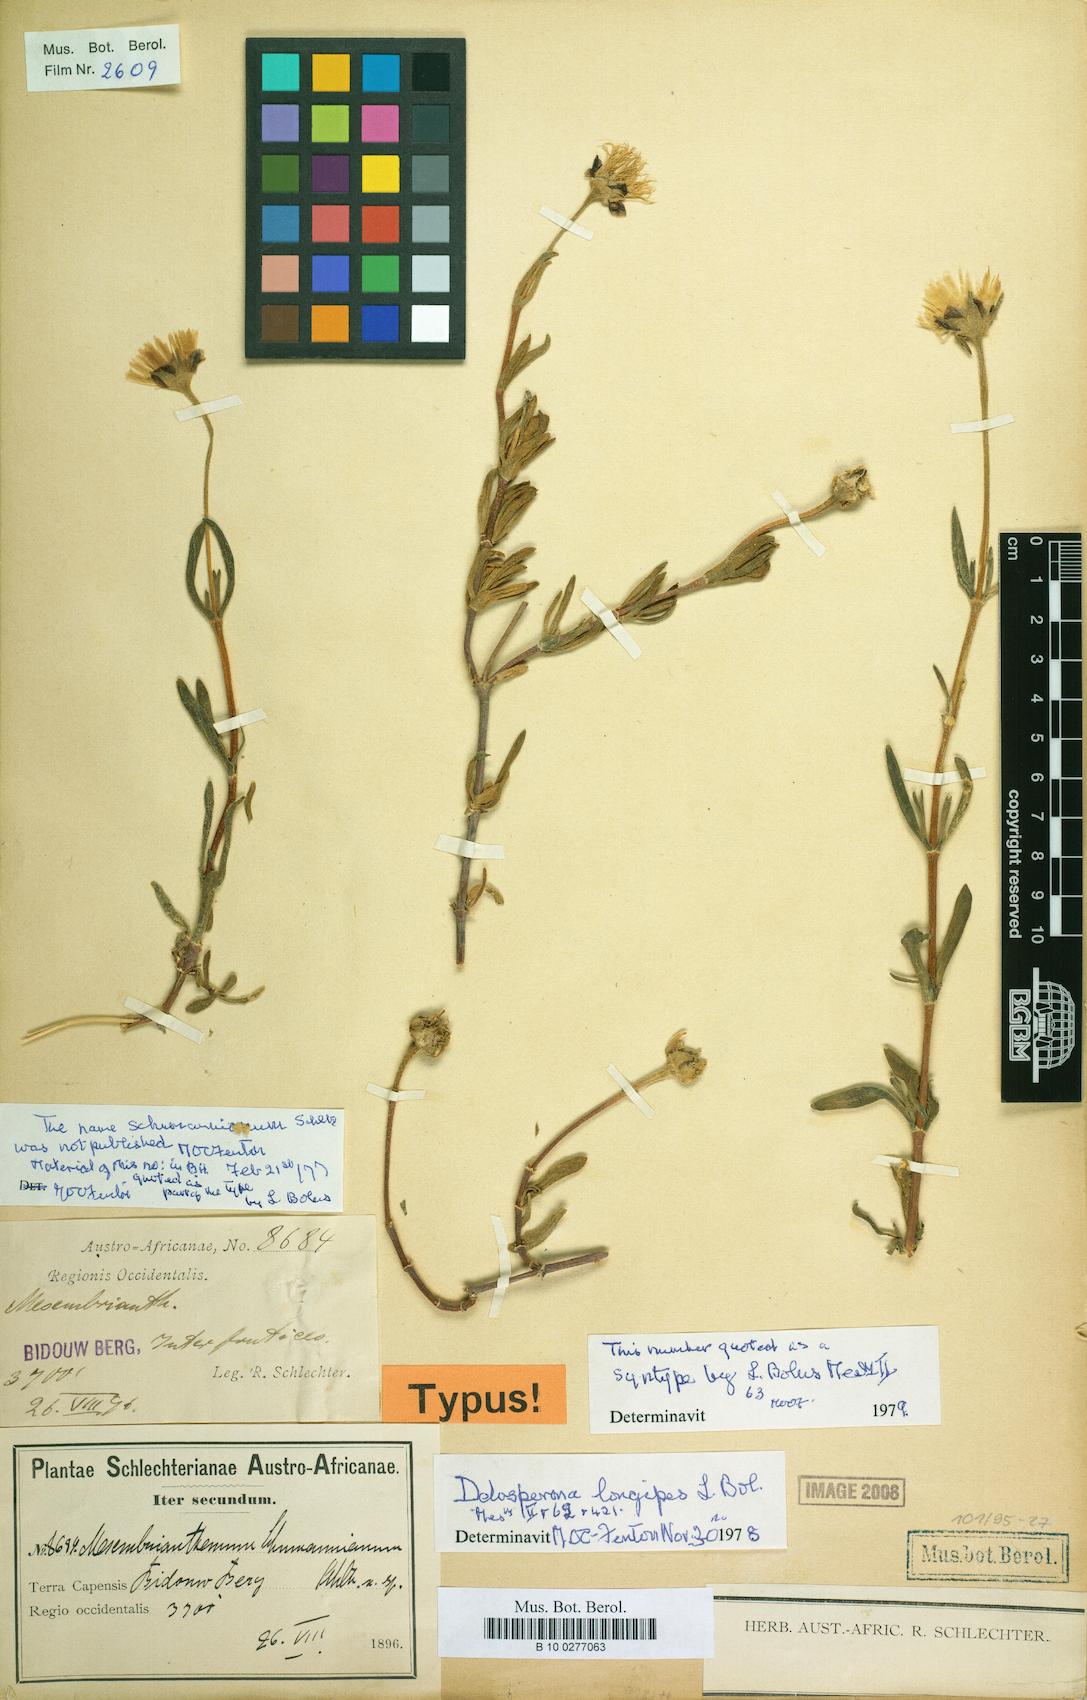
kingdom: Plantae
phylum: Tracheophyta
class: Magnoliopsida
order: Caryophyllales
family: Aizoaceae
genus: Drosanthemum
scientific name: Drosanthemum longipes
